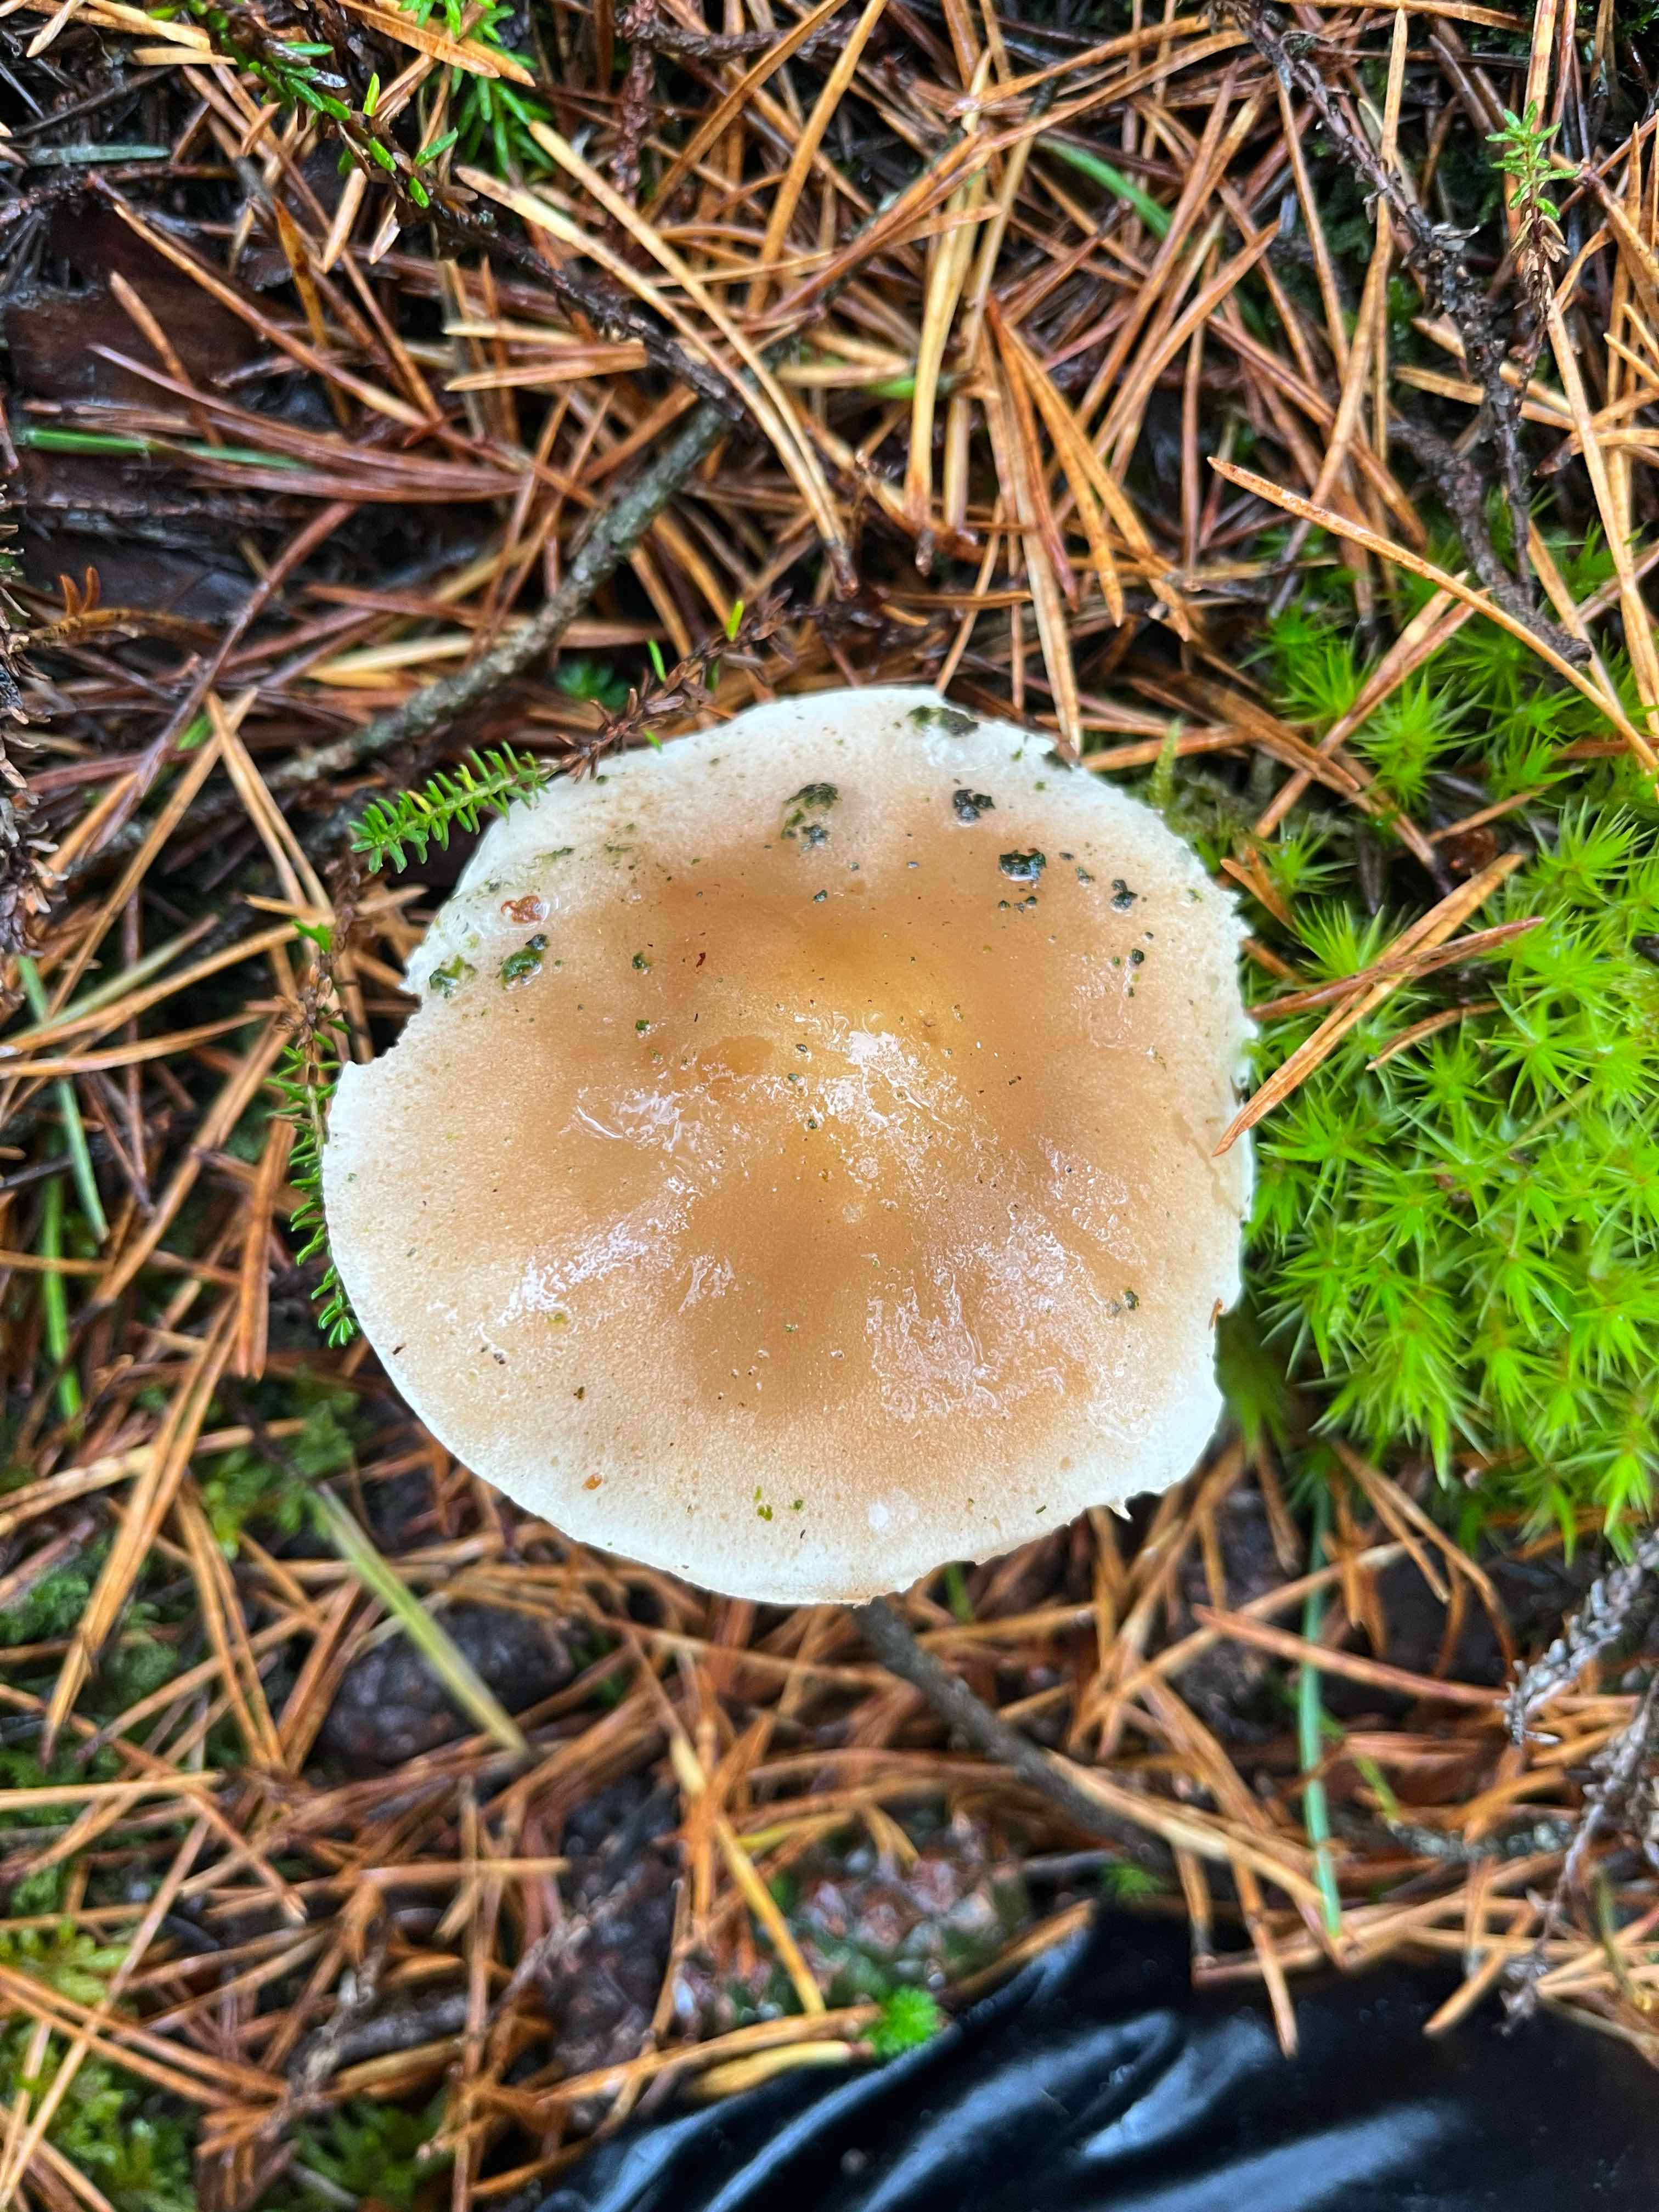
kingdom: Fungi
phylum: Basidiomycota
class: Agaricomycetes
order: Agaricales
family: Hymenogastraceae
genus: Hebeloma
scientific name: Hebeloma
